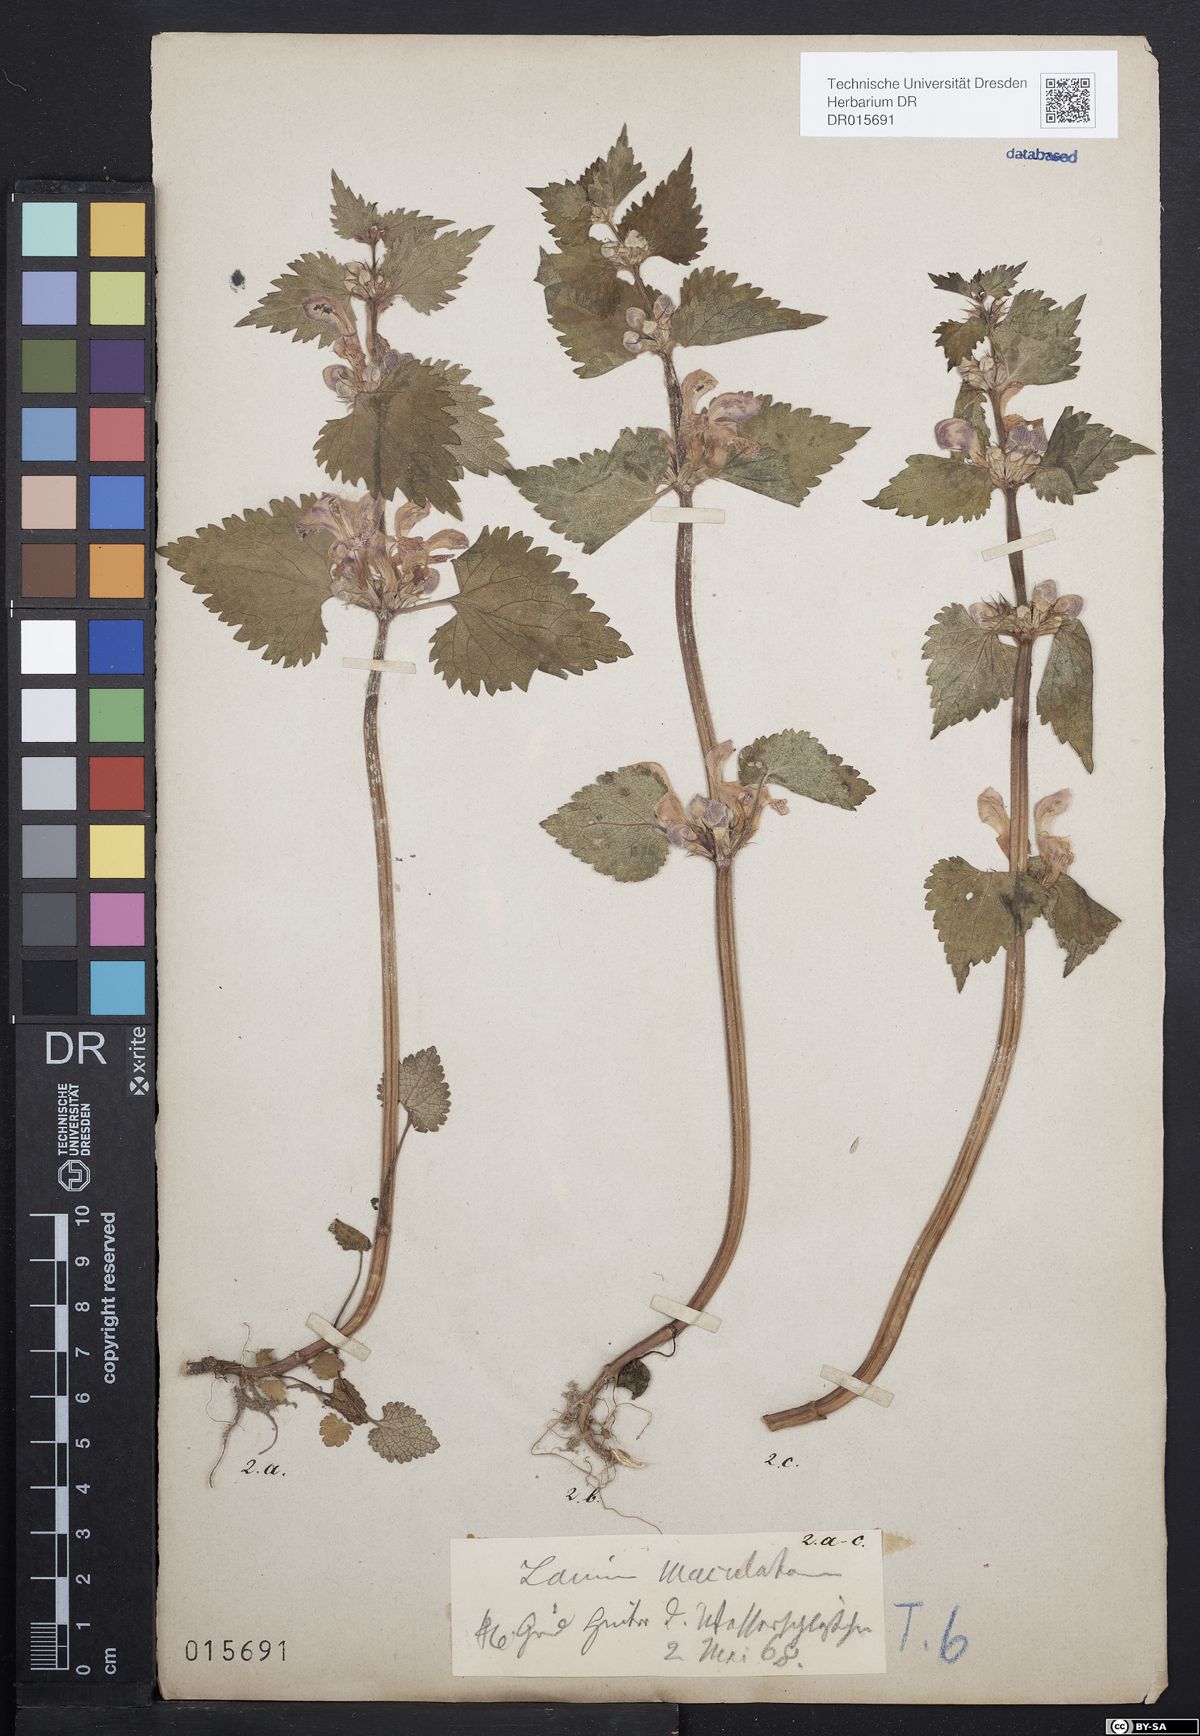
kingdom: Plantae
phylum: Tracheophyta
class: Magnoliopsida
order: Lamiales
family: Lamiaceae
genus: Lamium
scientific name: Lamium maculatum
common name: Spotted dead-nettle
